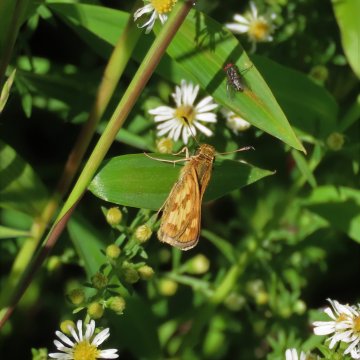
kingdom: Animalia
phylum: Arthropoda
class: Insecta
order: Lepidoptera
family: Hesperiidae
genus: Polites
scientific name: Polites coras
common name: Peck's Skipper
